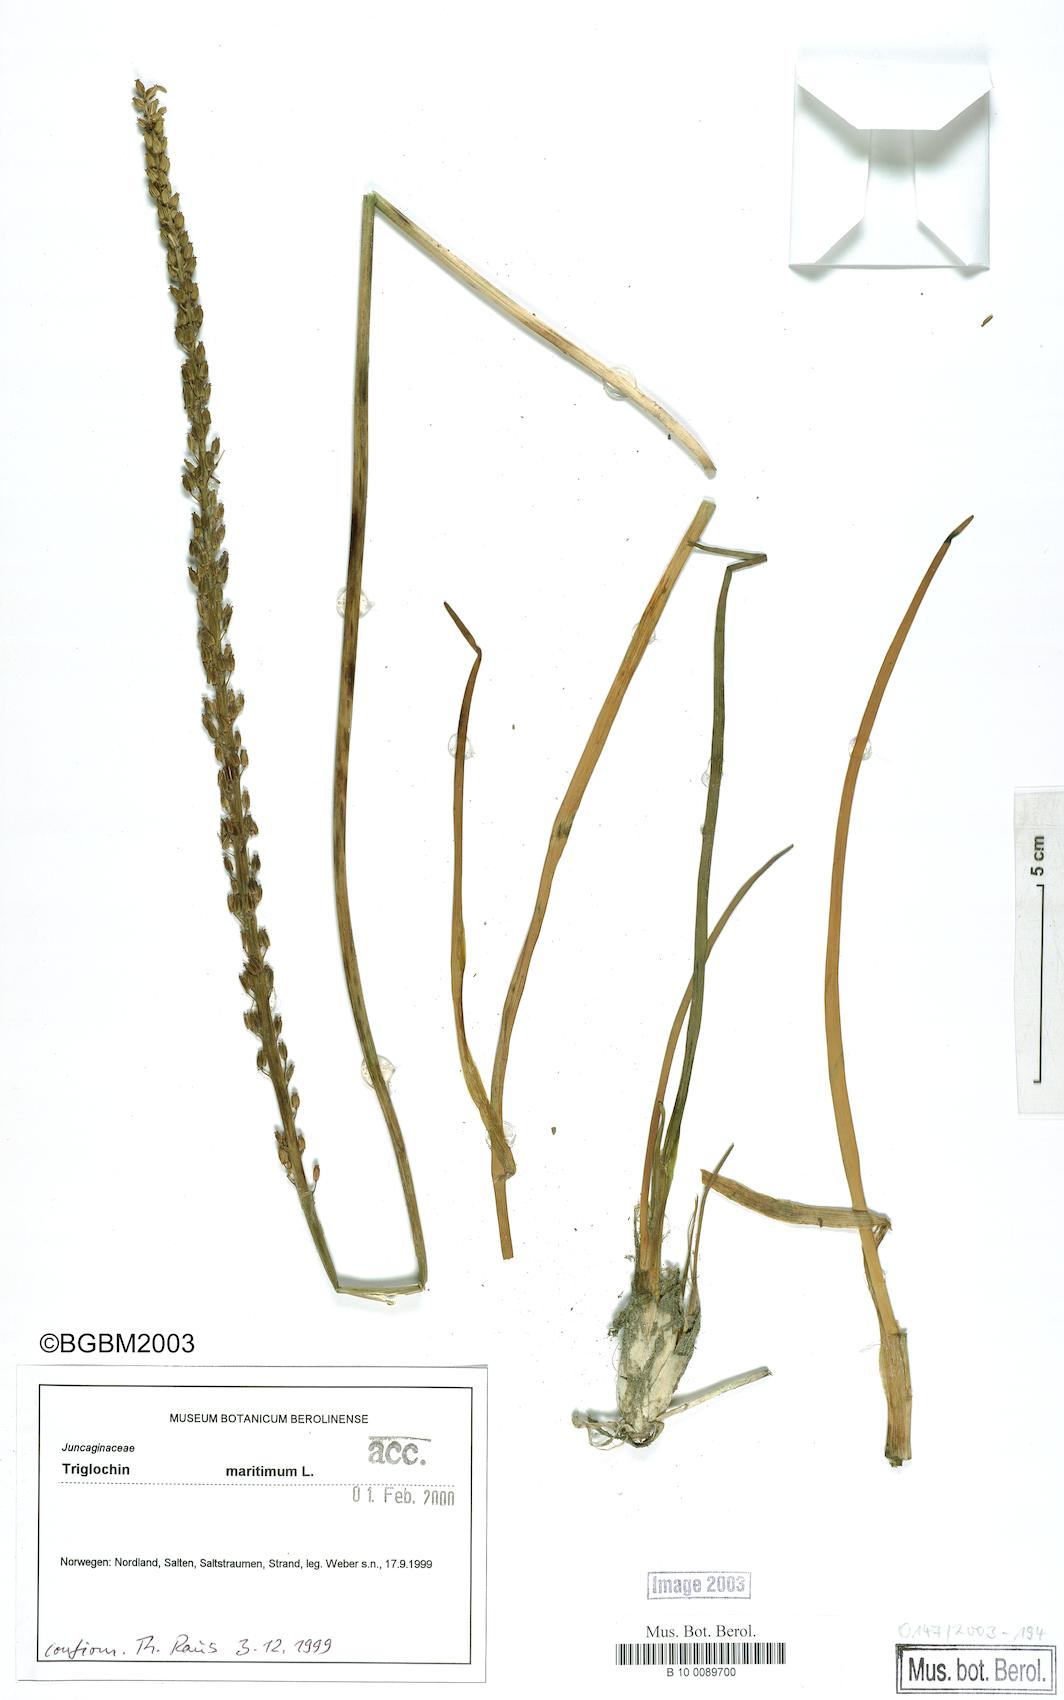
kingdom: Plantae
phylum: Tracheophyta
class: Liliopsida
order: Alismatales
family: Juncaginaceae
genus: Triglochin
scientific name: Triglochin maritima
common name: Sea arrowgrass
